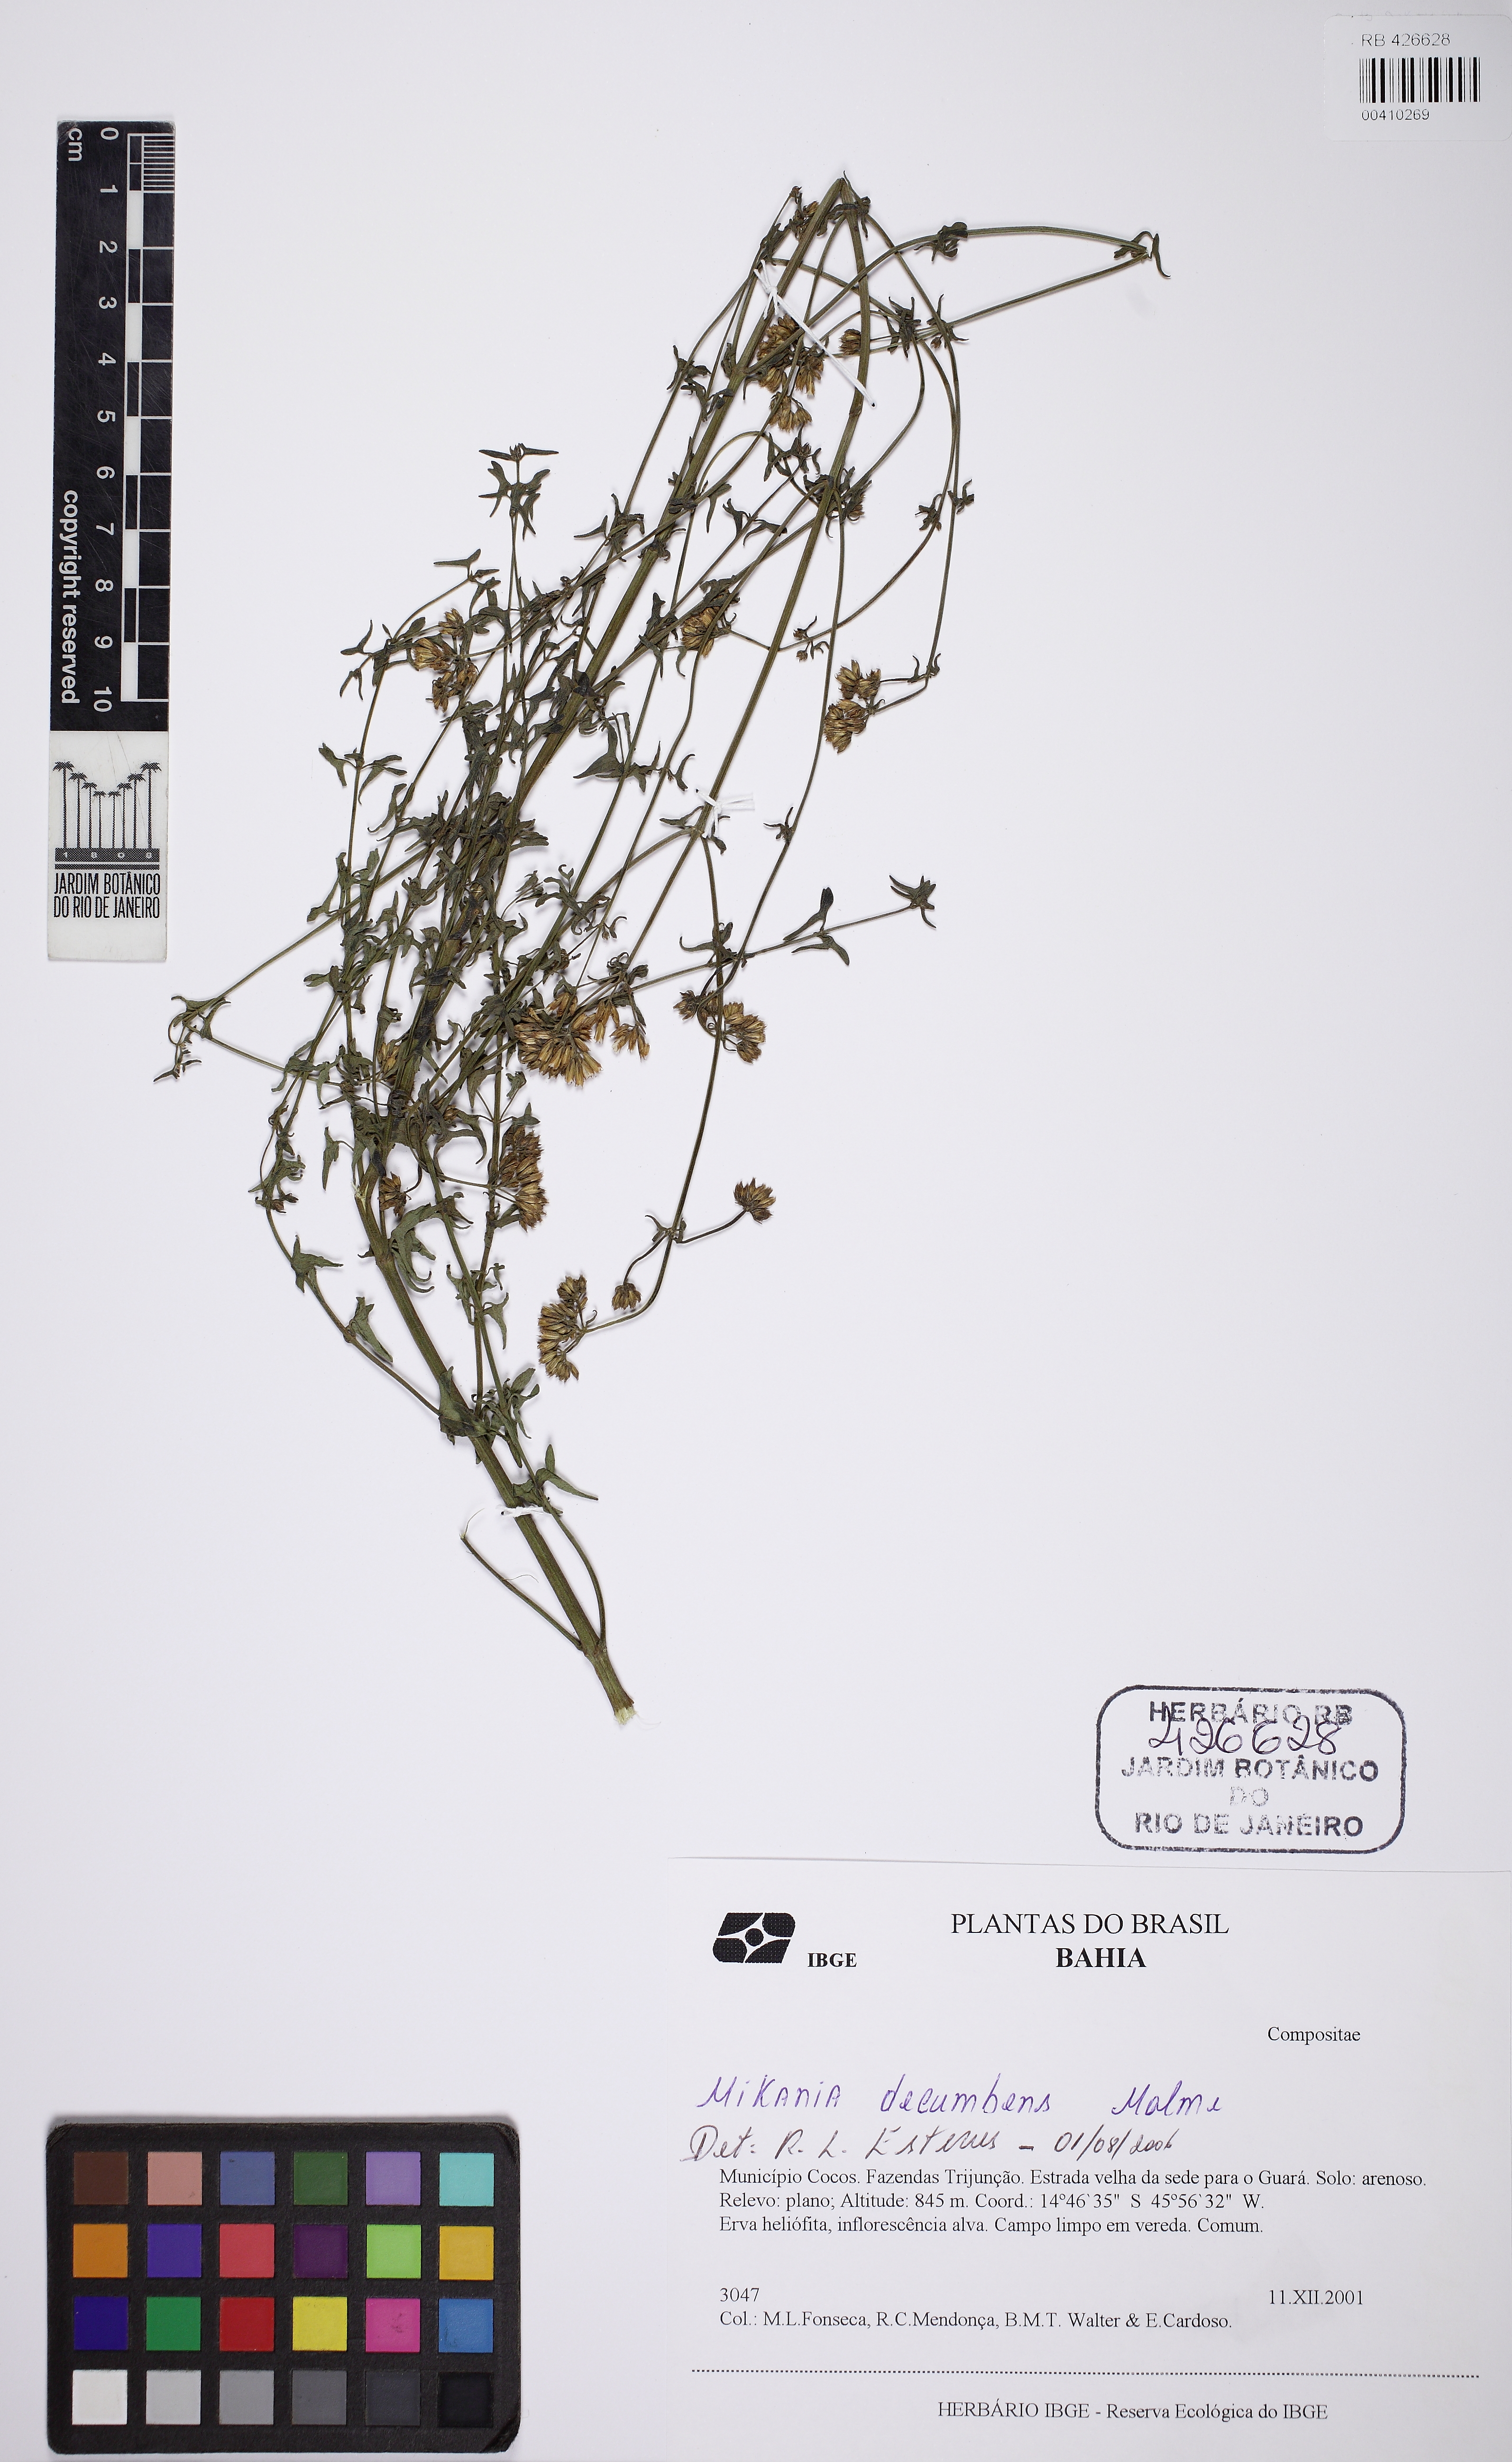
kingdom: Plantae
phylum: Tracheophyta
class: Magnoliopsida
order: Asterales
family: Asteraceae
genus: Mikania
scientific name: Mikania officinalis
